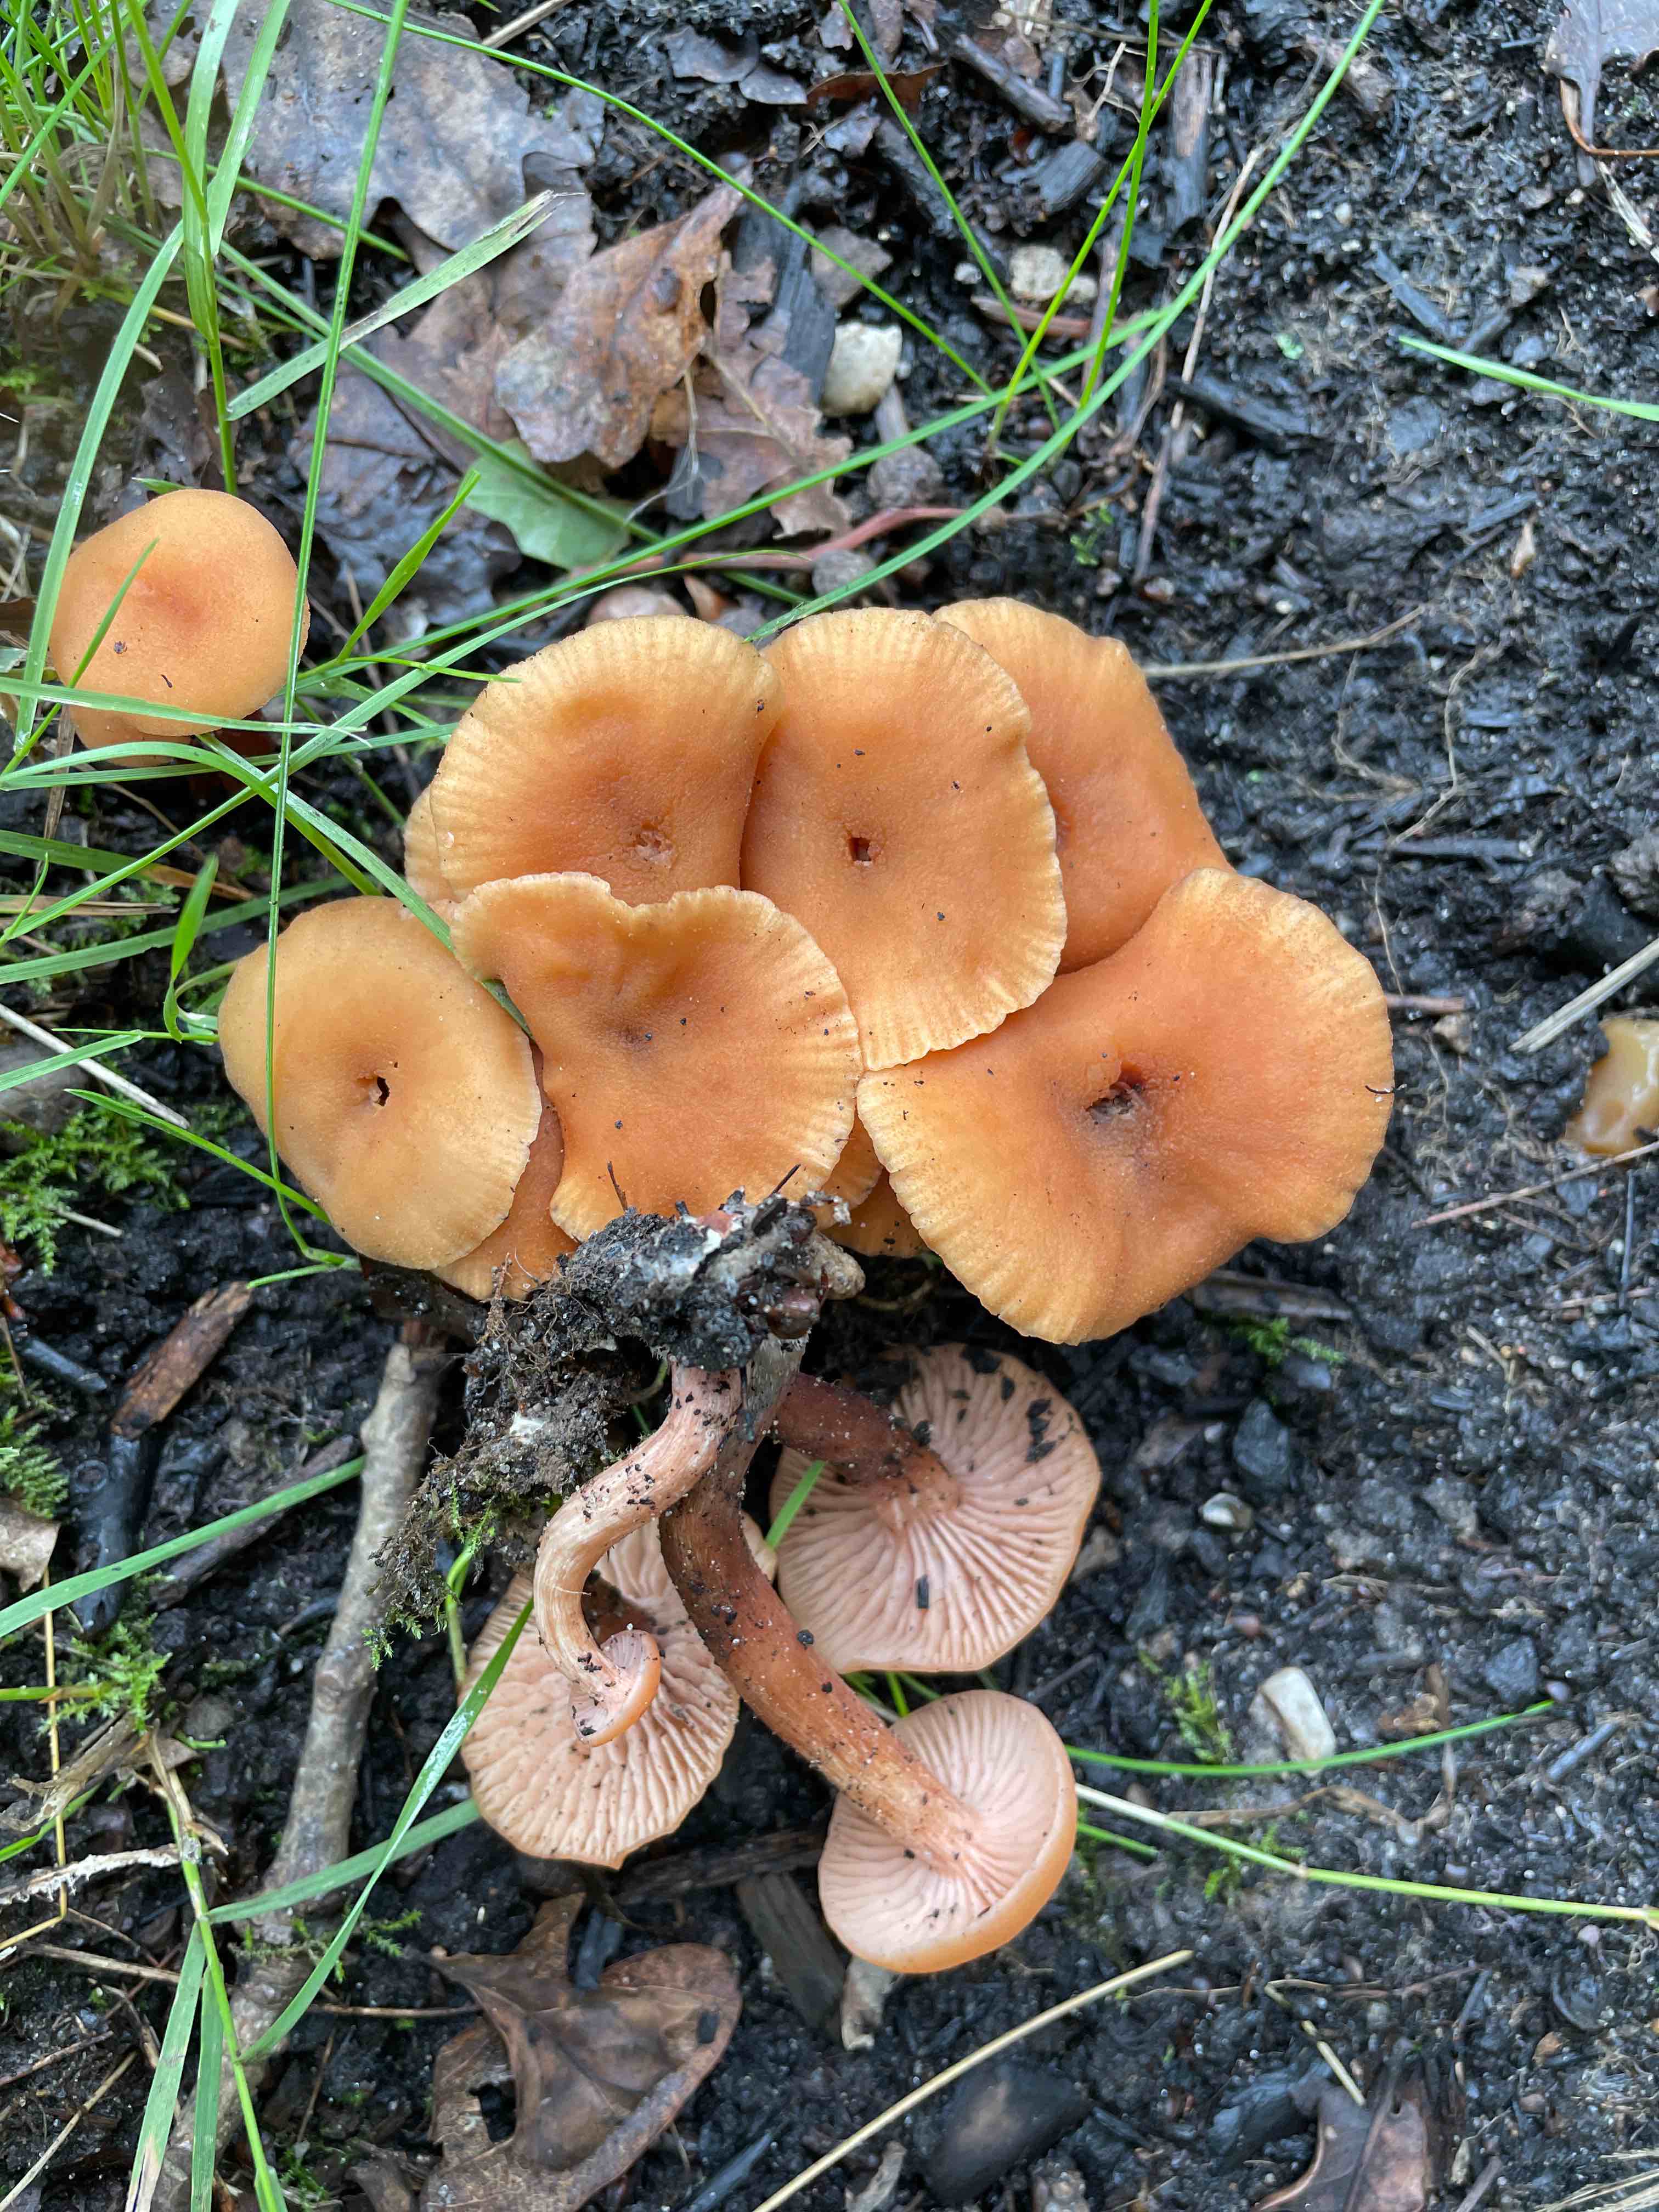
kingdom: Fungi
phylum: Basidiomycota
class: Agaricomycetes
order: Agaricales
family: Hydnangiaceae
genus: Laccaria
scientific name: Laccaria laccata
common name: rød ametysthat
